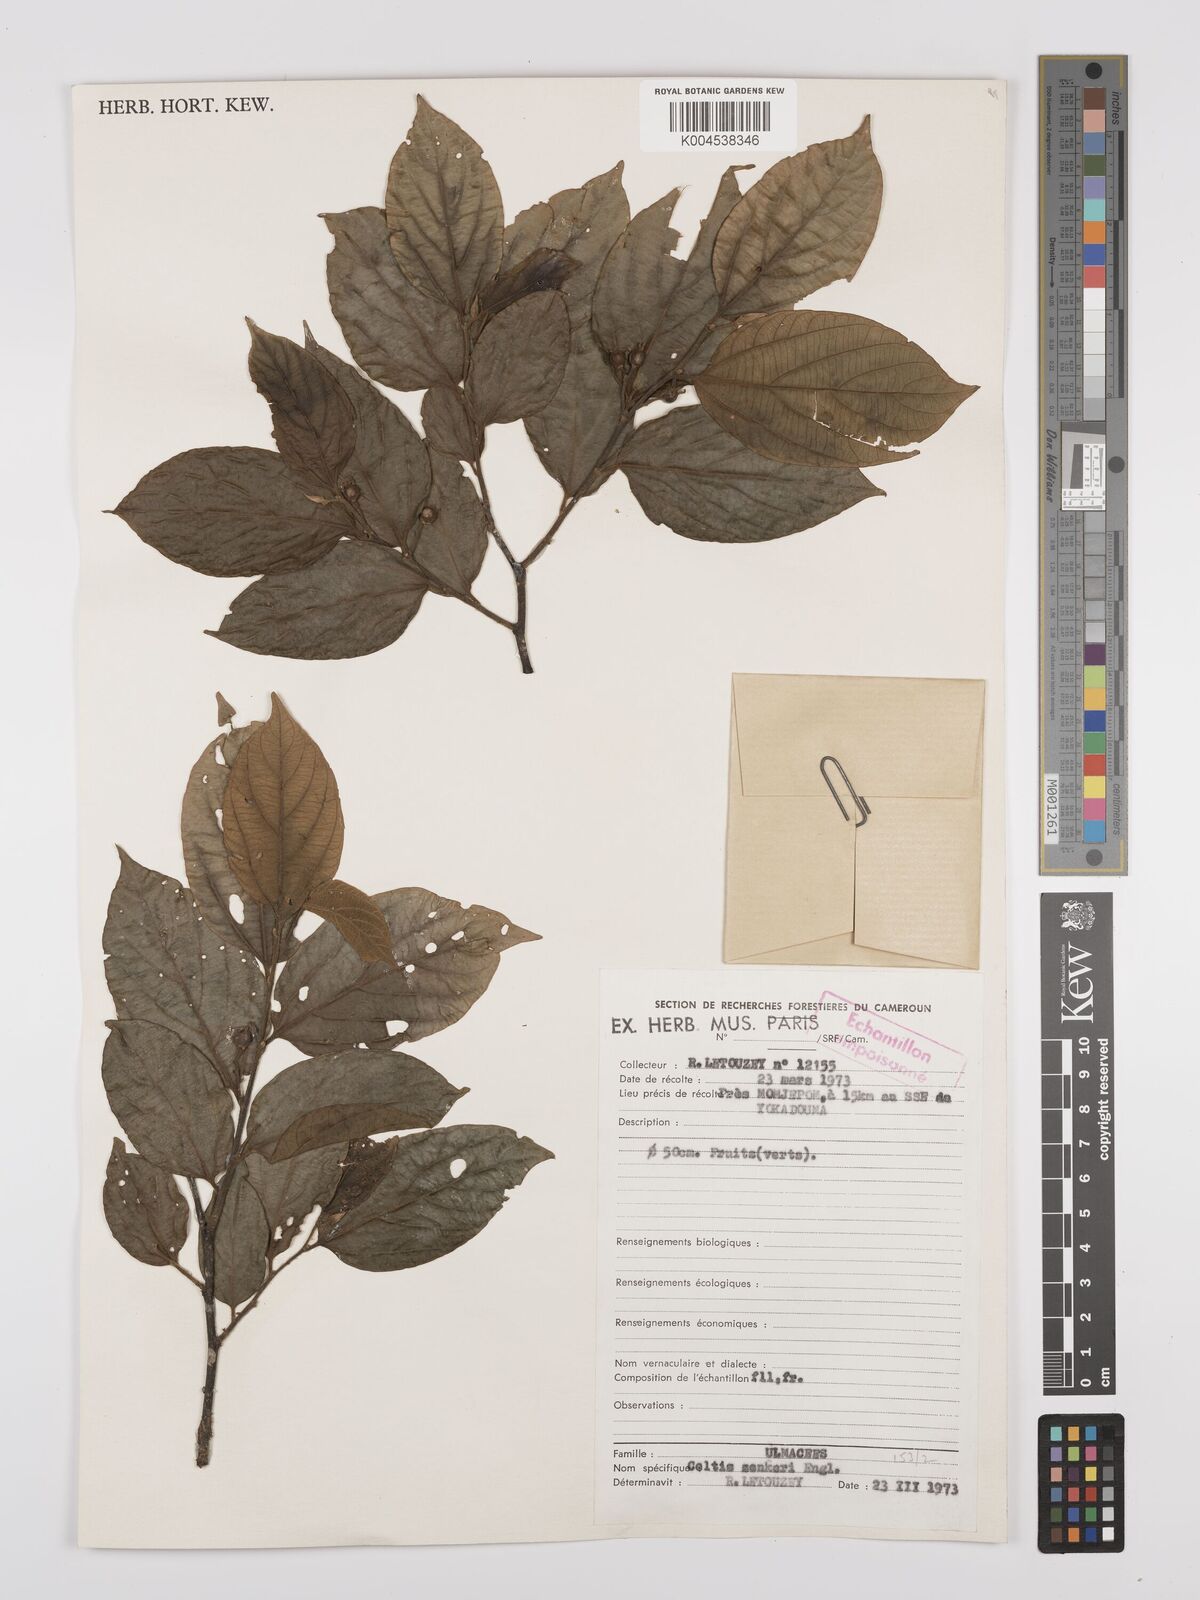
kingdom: Plantae
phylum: Tracheophyta
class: Magnoliopsida
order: Rosales
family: Cannabaceae
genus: Celtis
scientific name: Celtis zenkeri
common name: African celtis
